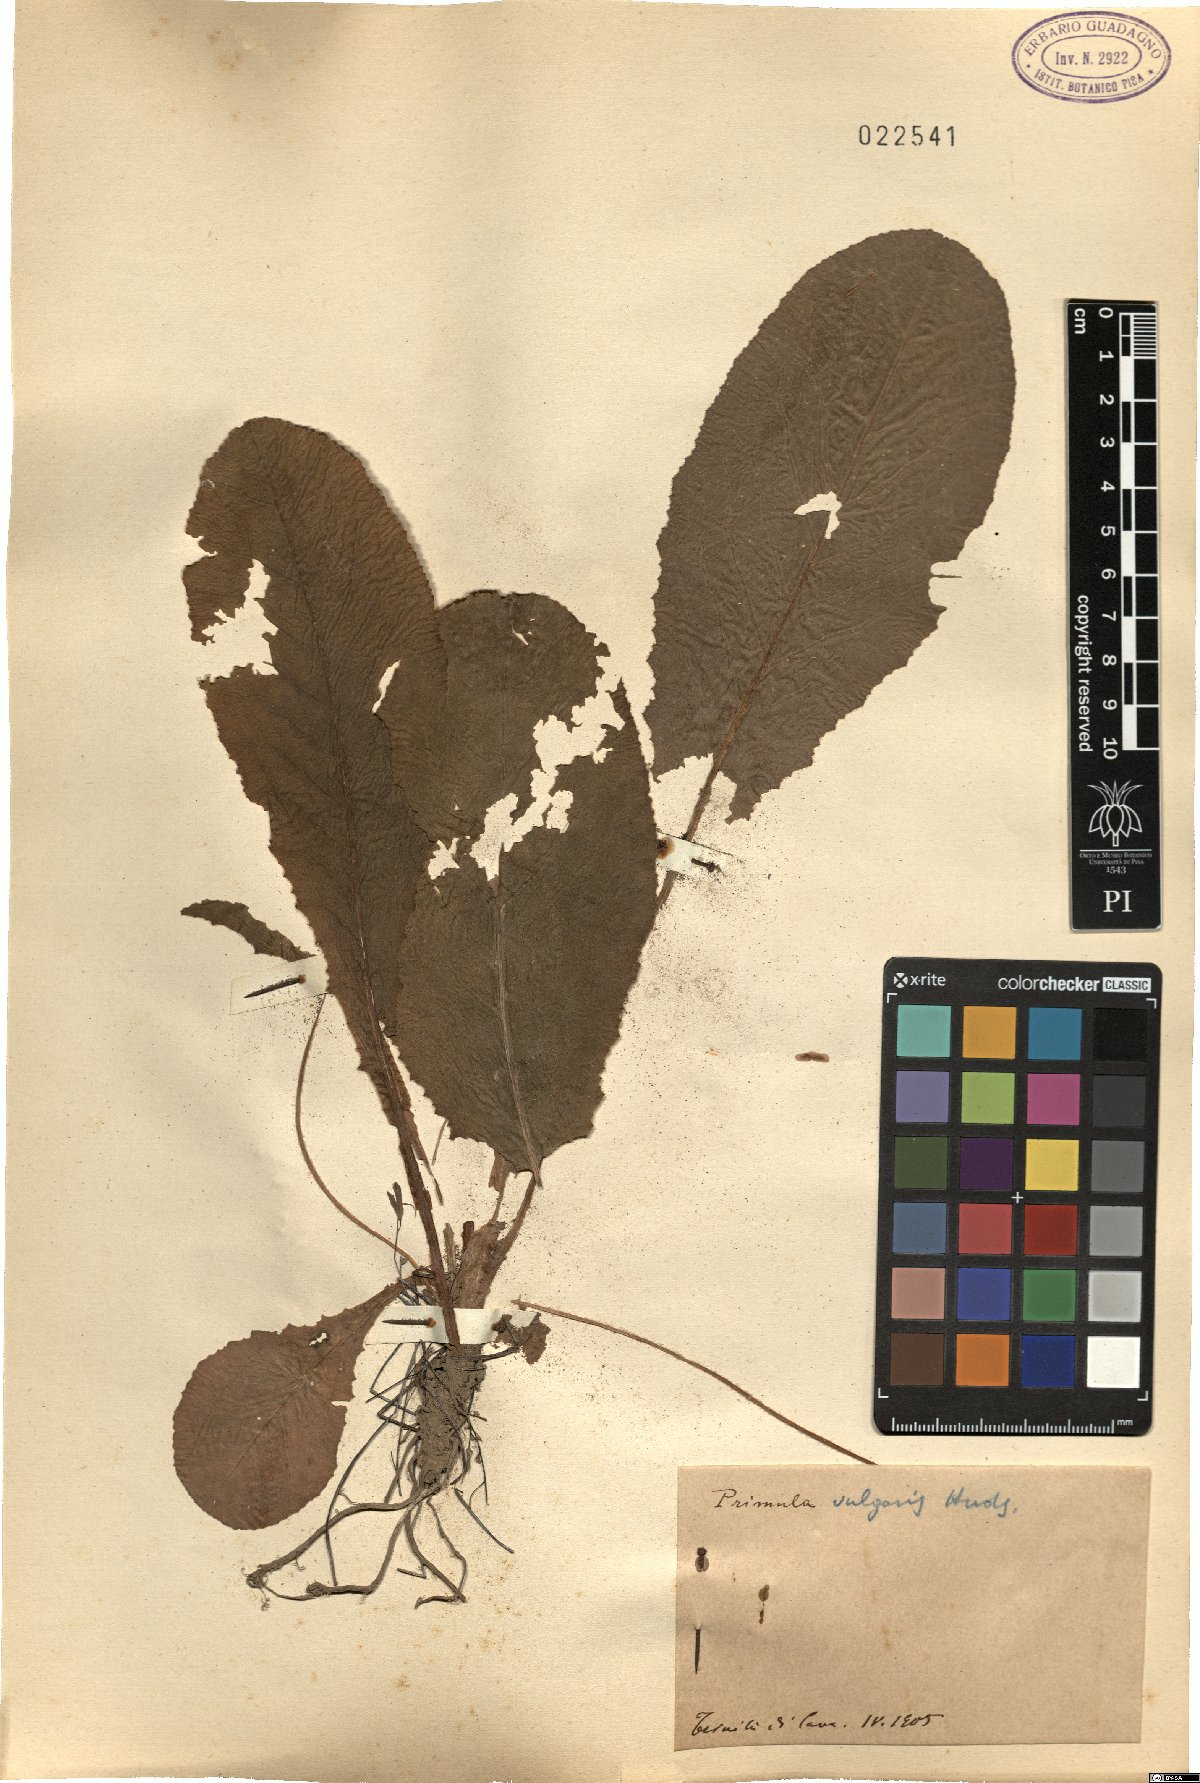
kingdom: Plantae
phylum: Tracheophyta
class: Magnoliopsida
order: Ericales
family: Primulaceae
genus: Primula
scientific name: Primula vulgaris
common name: Primrose
